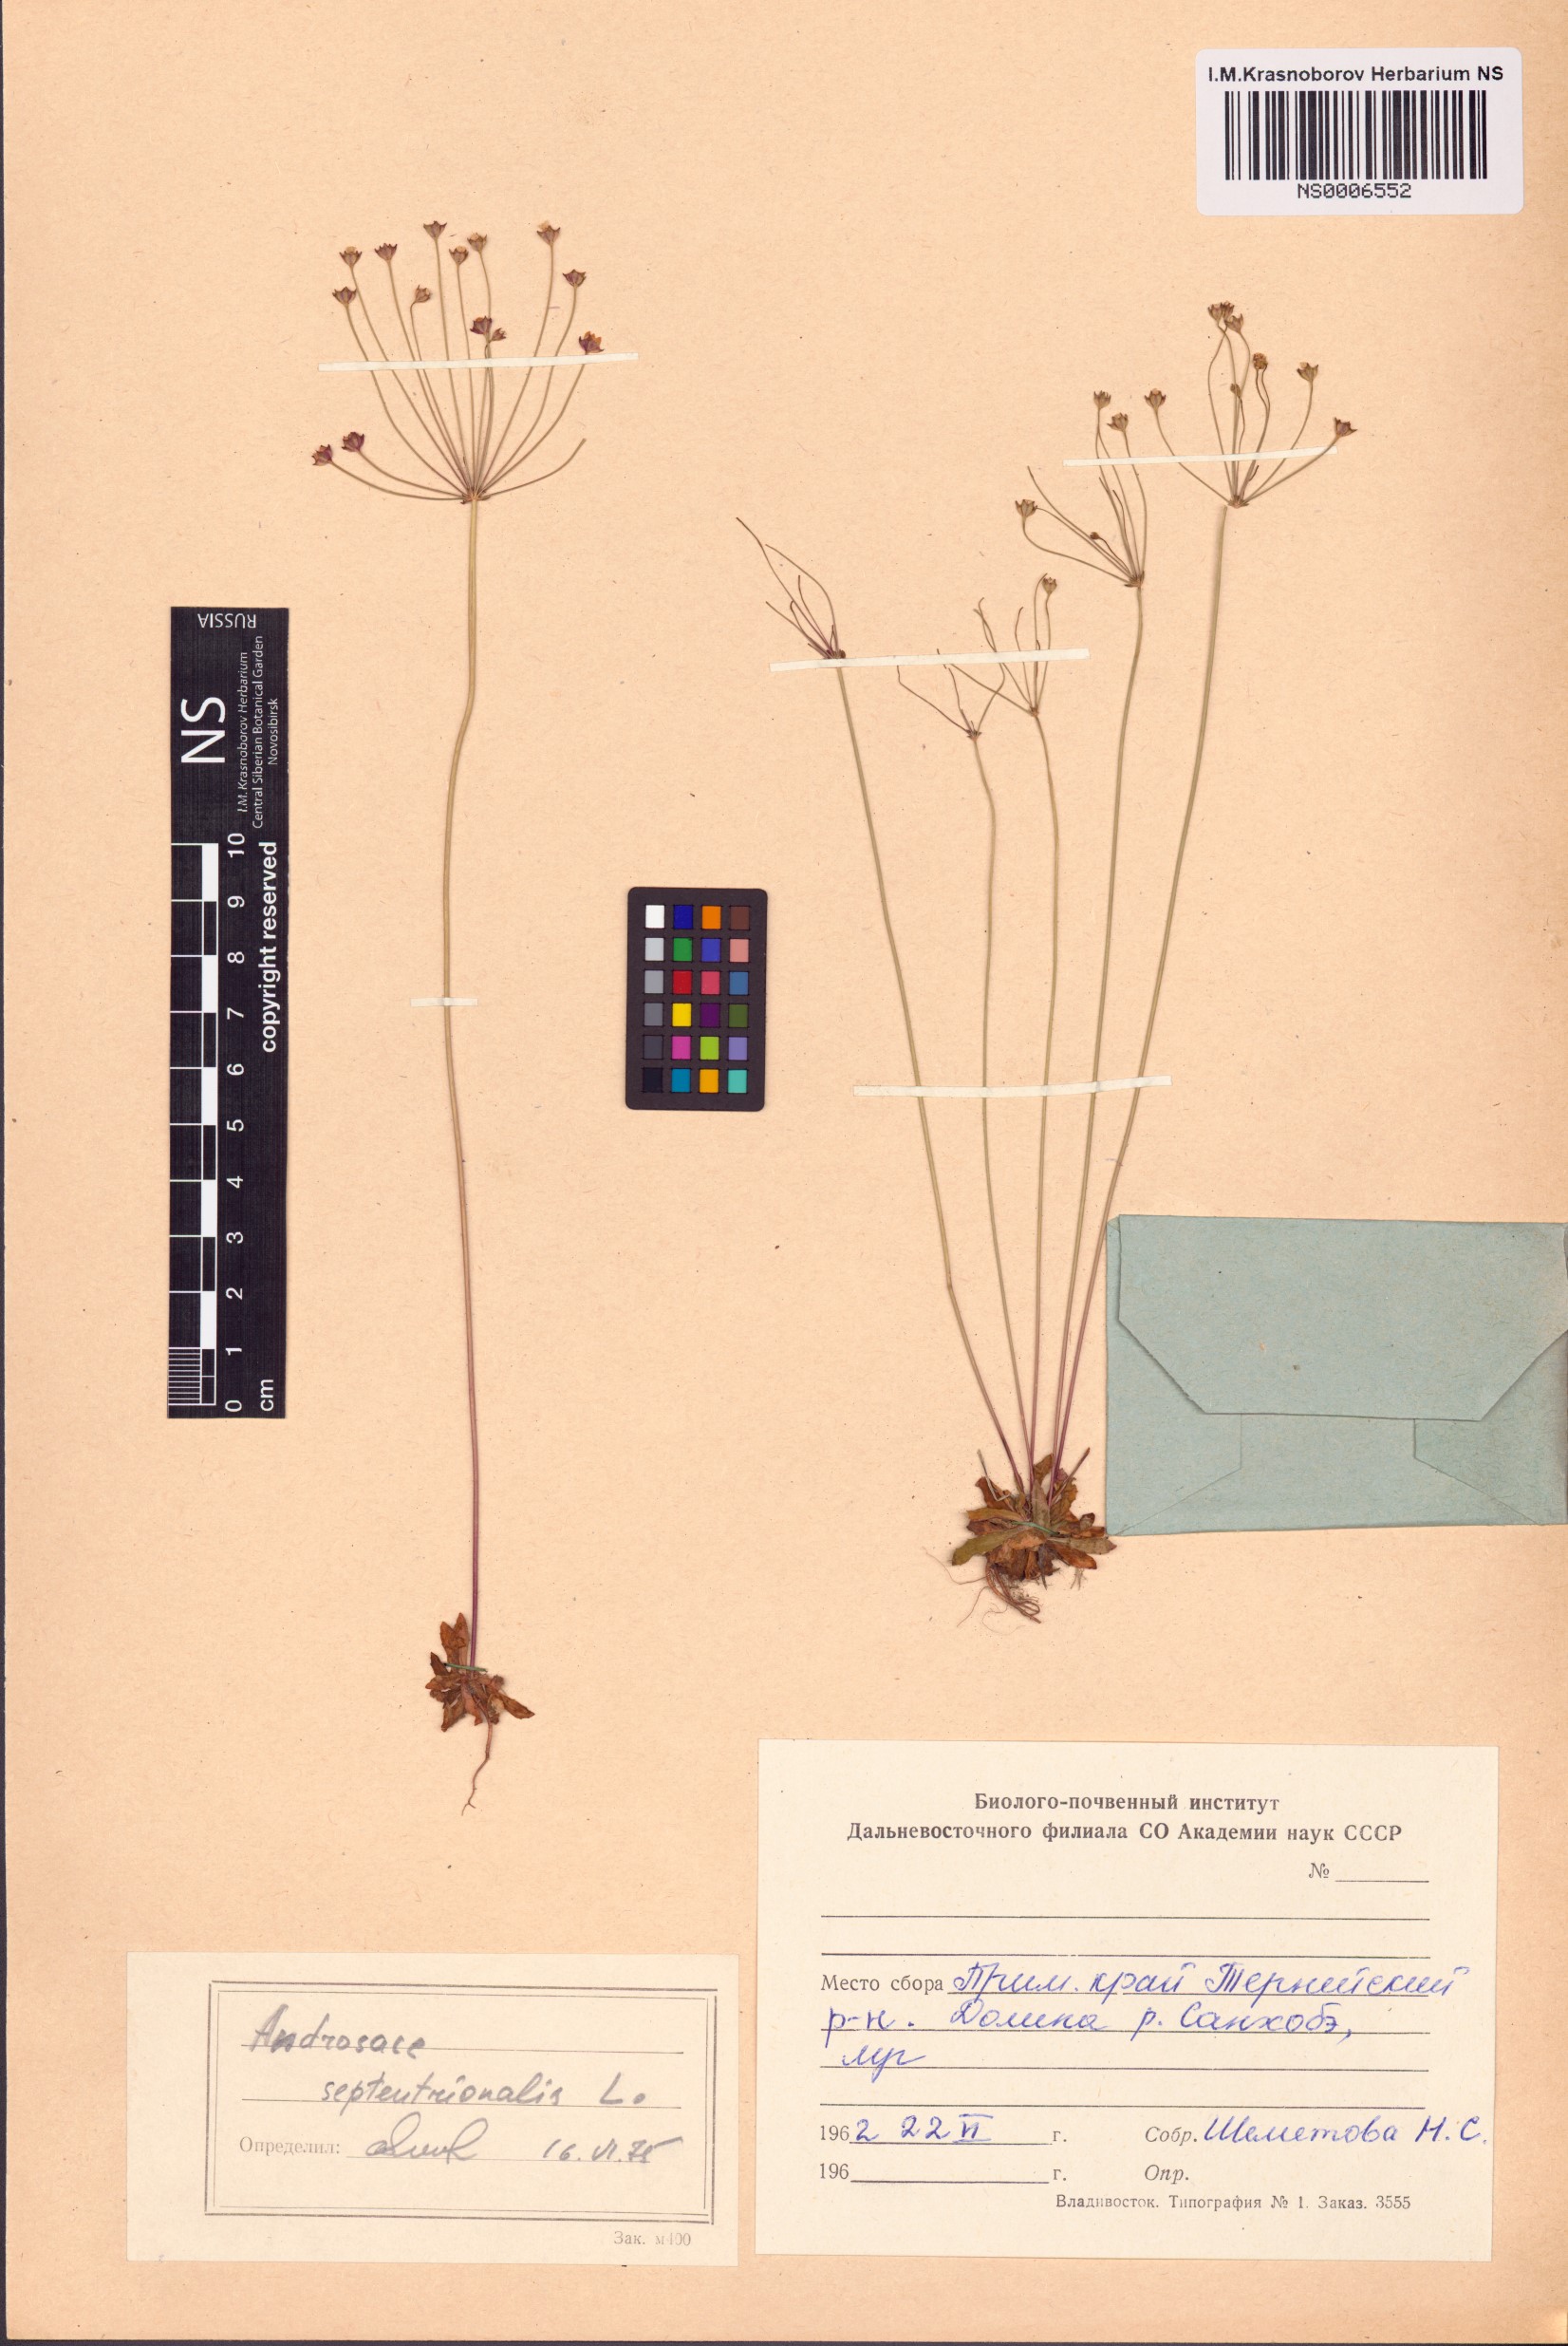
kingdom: Plantae
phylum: Tracheophyta
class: Magnoliopsida
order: Ericales
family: Primulaceae
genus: Androsace
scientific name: Androsace septentrionalis
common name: Hairy northern fairy-candelabra
